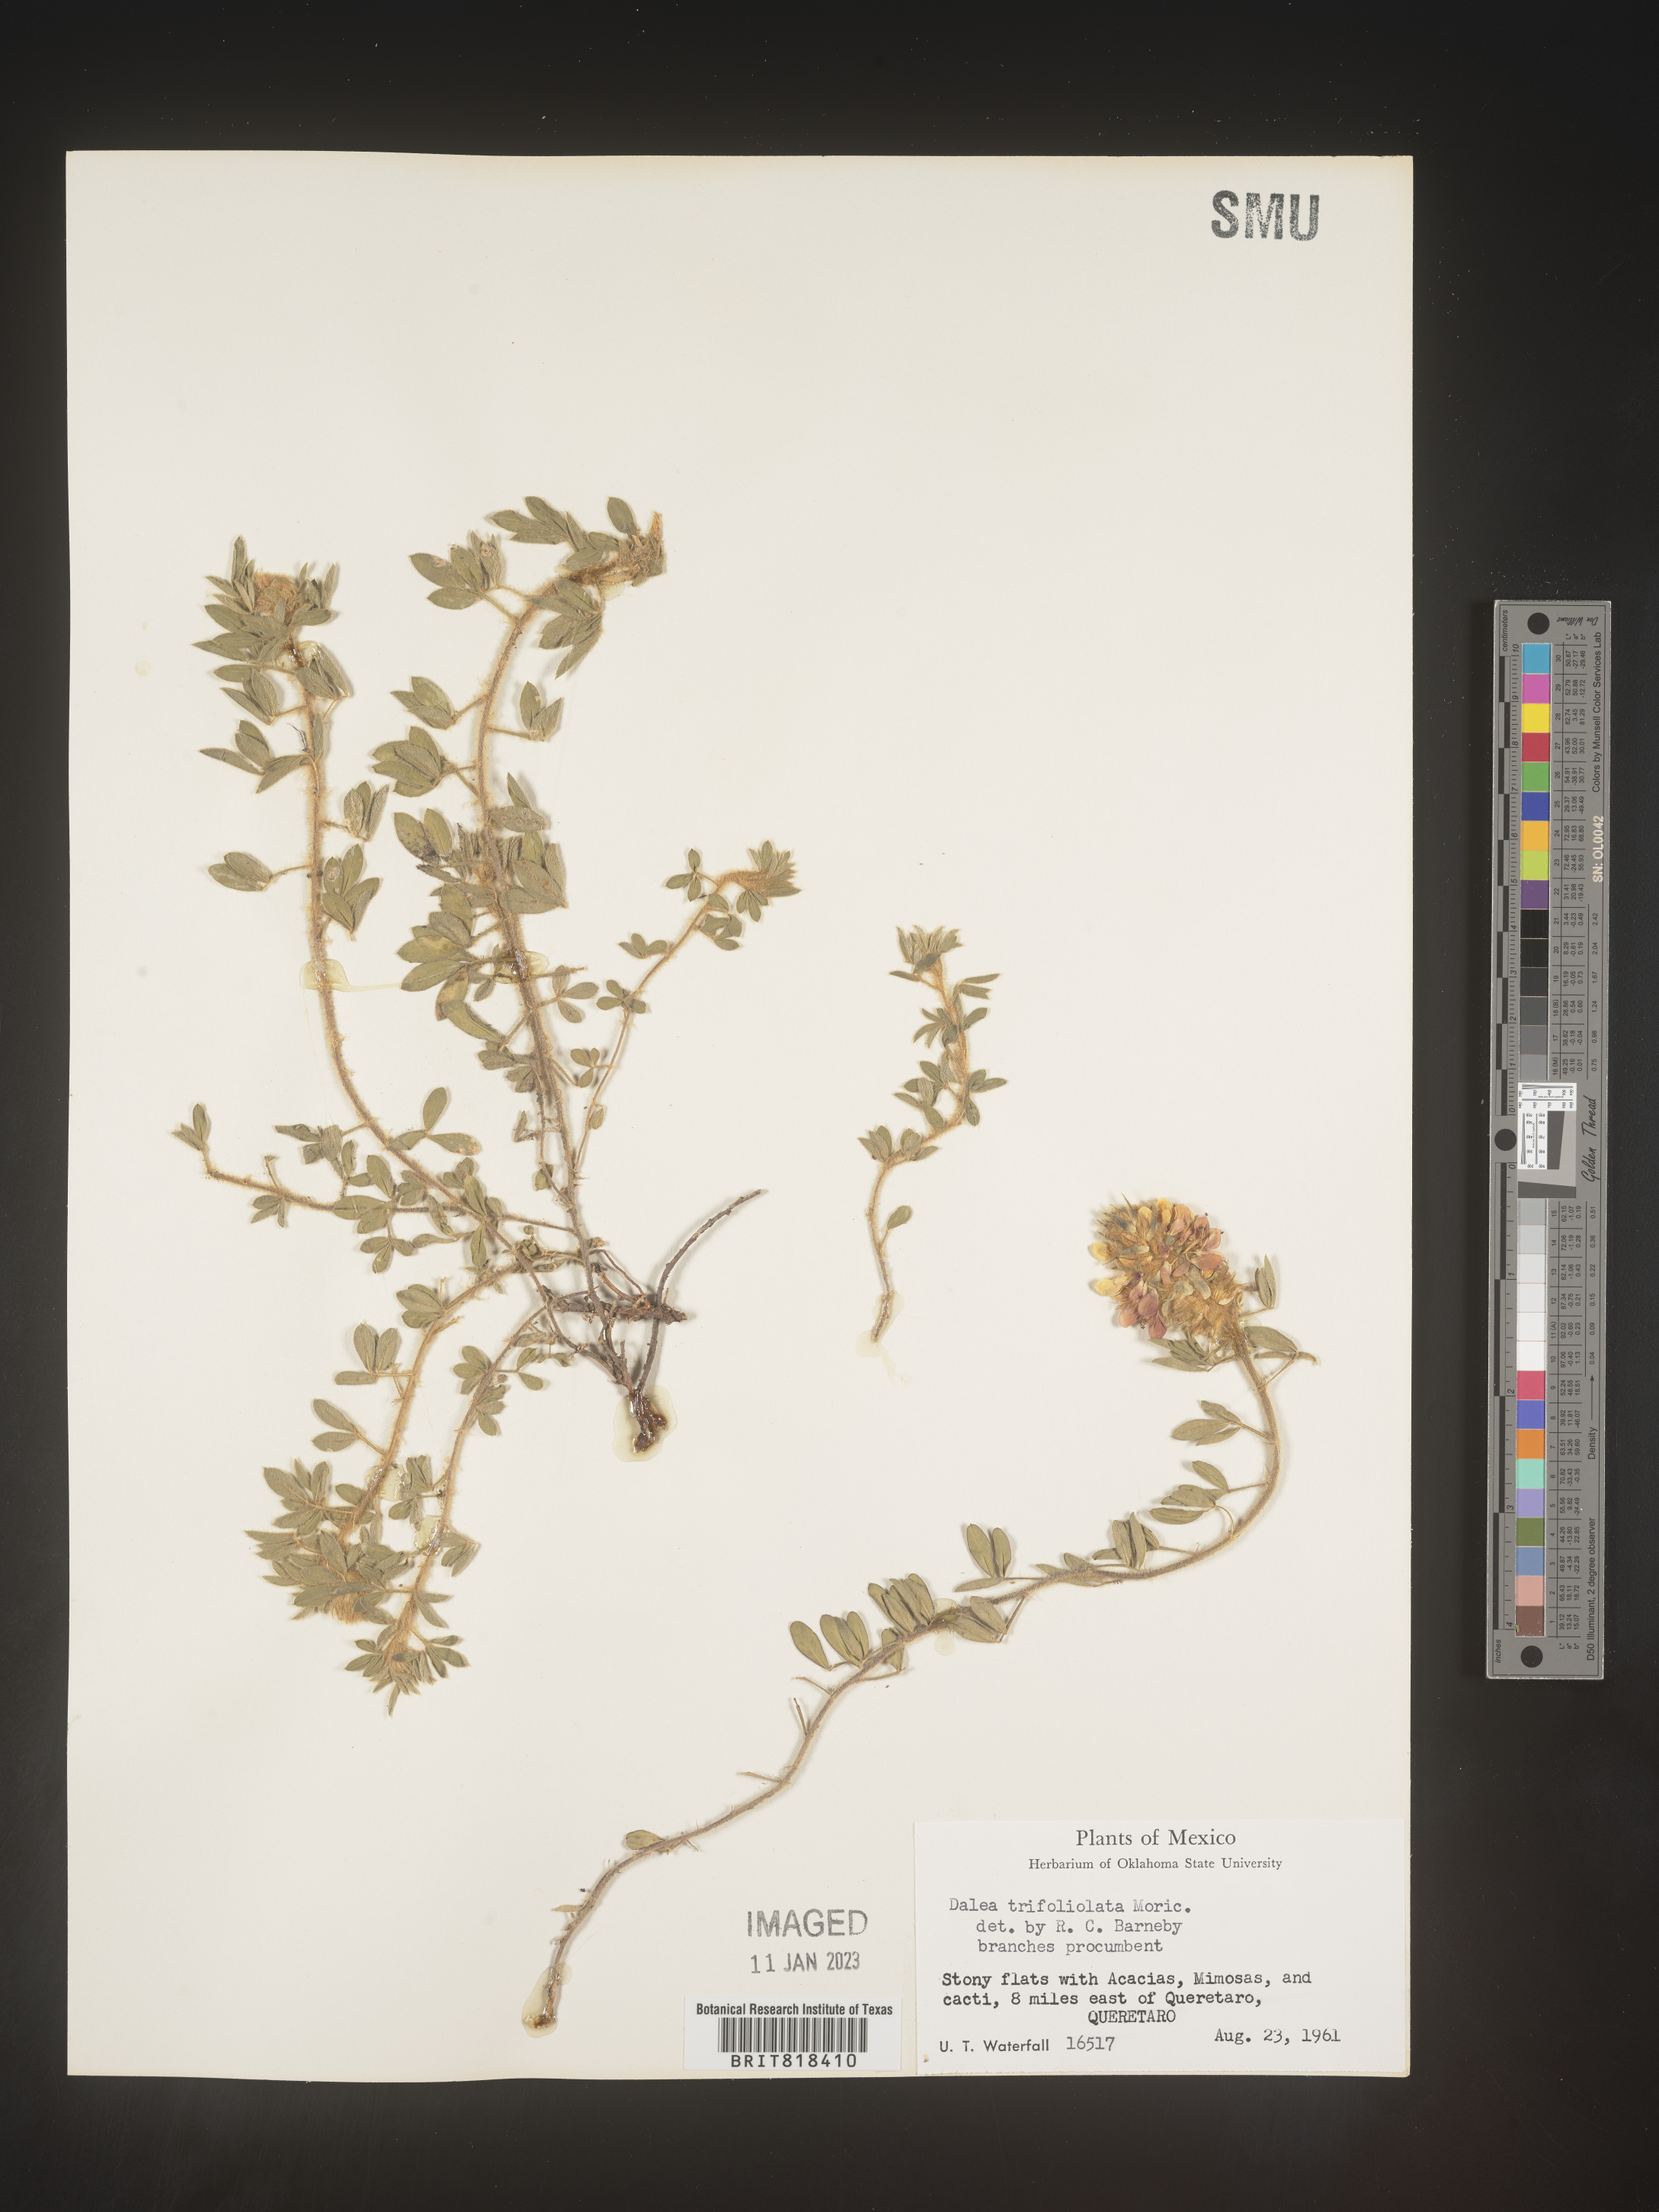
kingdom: Plantae
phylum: Tracheophyta
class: Magnoliopsida
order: Fabales
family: Fabaceae
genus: Dalea
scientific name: Dalea
